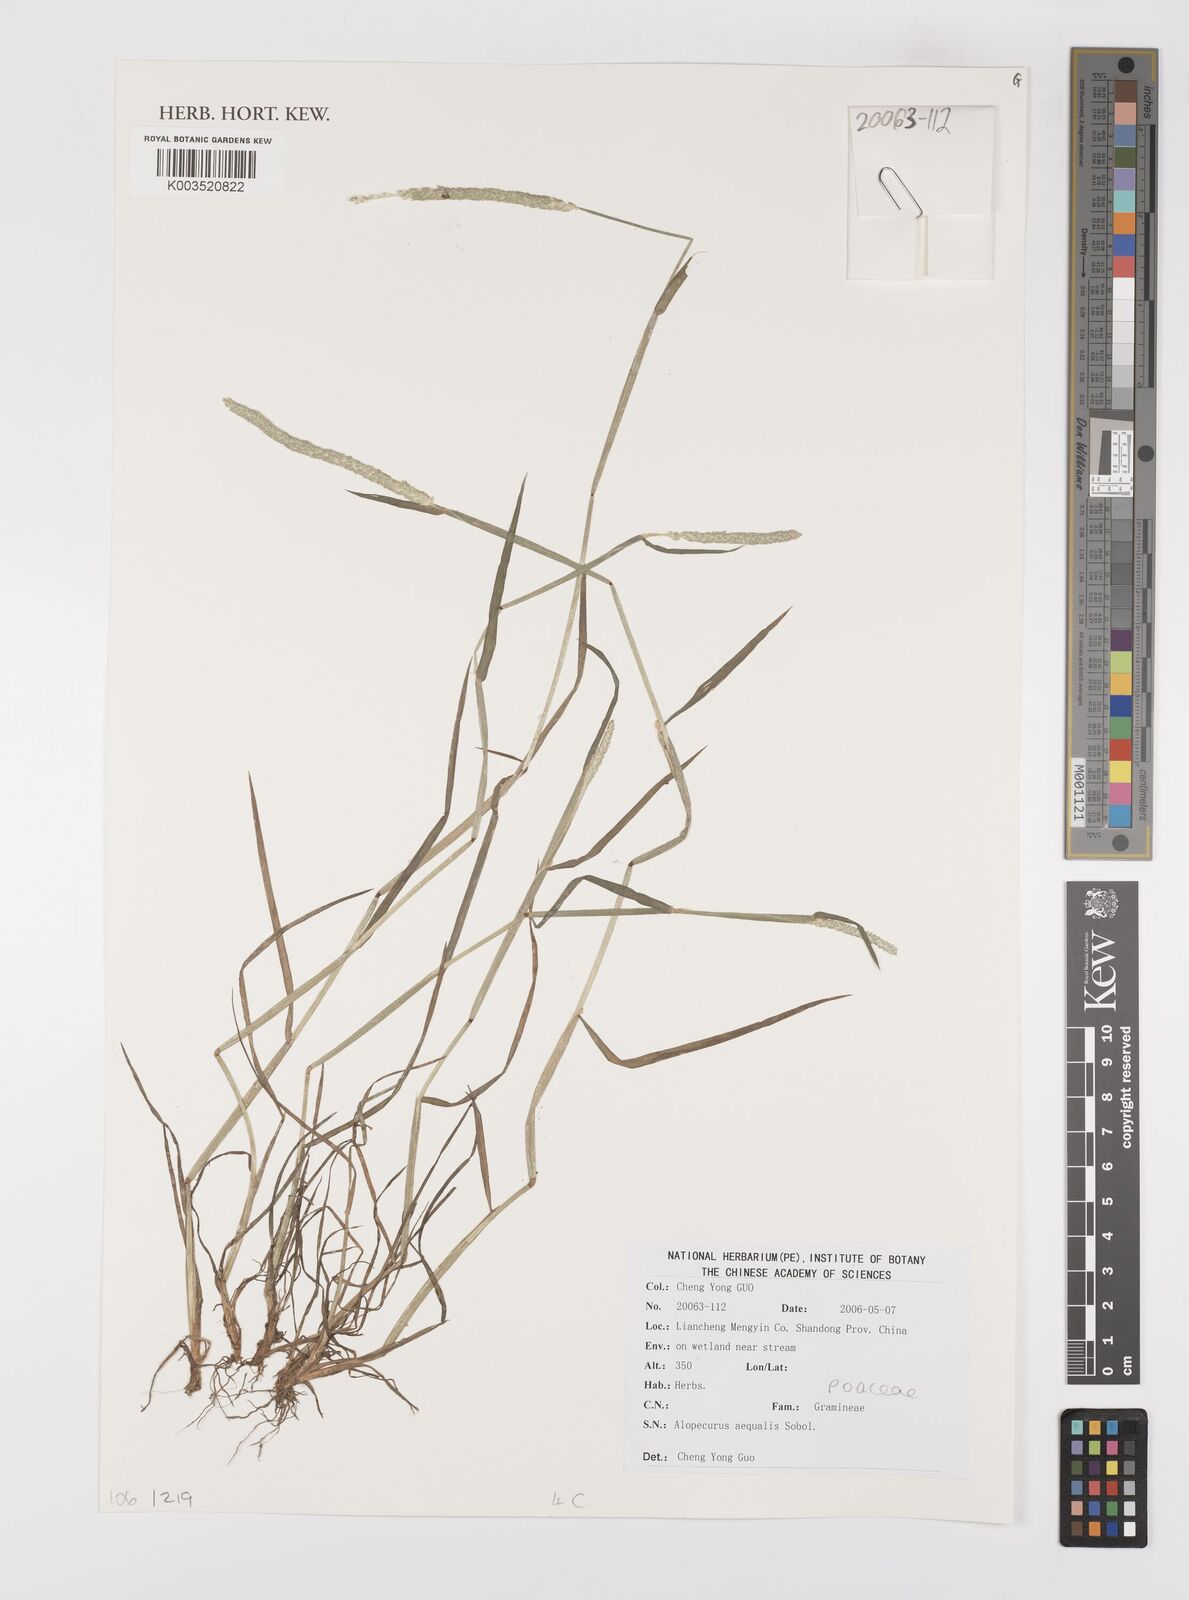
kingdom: Plantae
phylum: Tracheophyta
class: Liliopsida
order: Poales
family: Poaceae
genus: Alopecurus
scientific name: Alopecurus aequalis
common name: Orange foxtail
